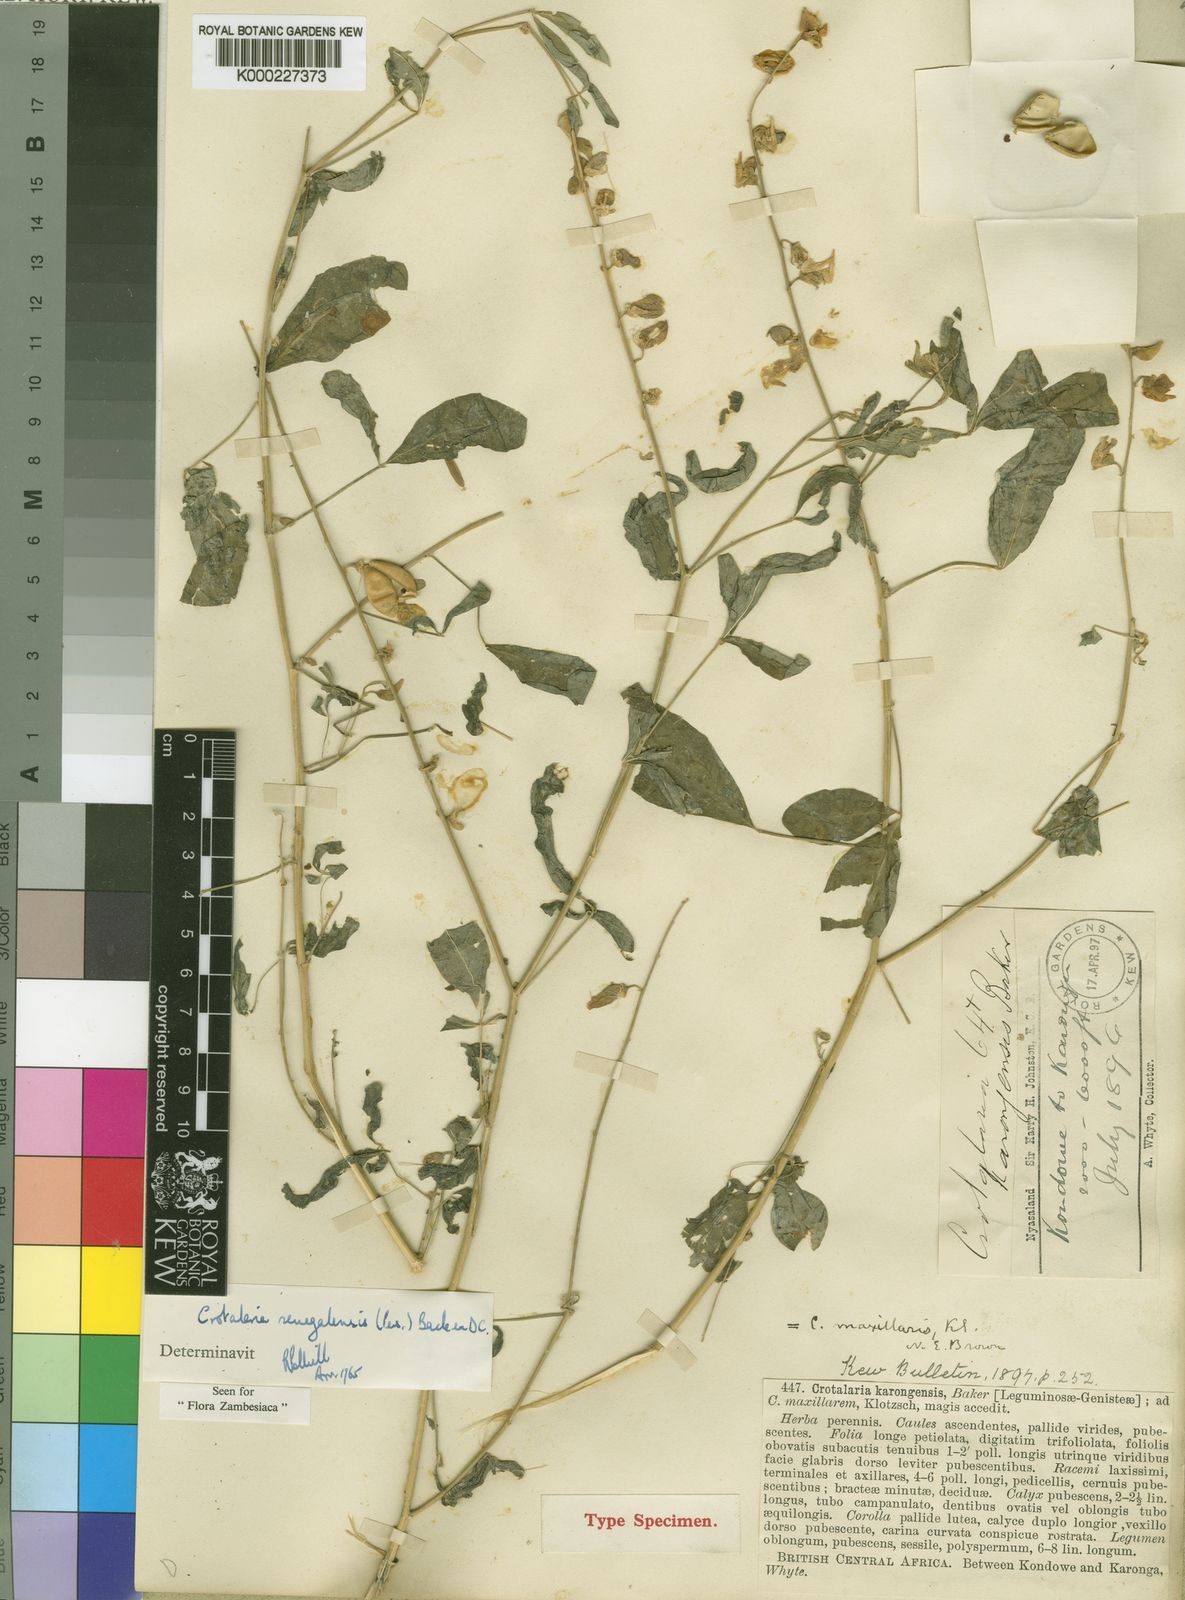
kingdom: Plantae
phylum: Tracheophyta
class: Magnoliopsida
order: Fabales
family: Fabaceae
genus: Crotalaria
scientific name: Crotalaria senegalensis
